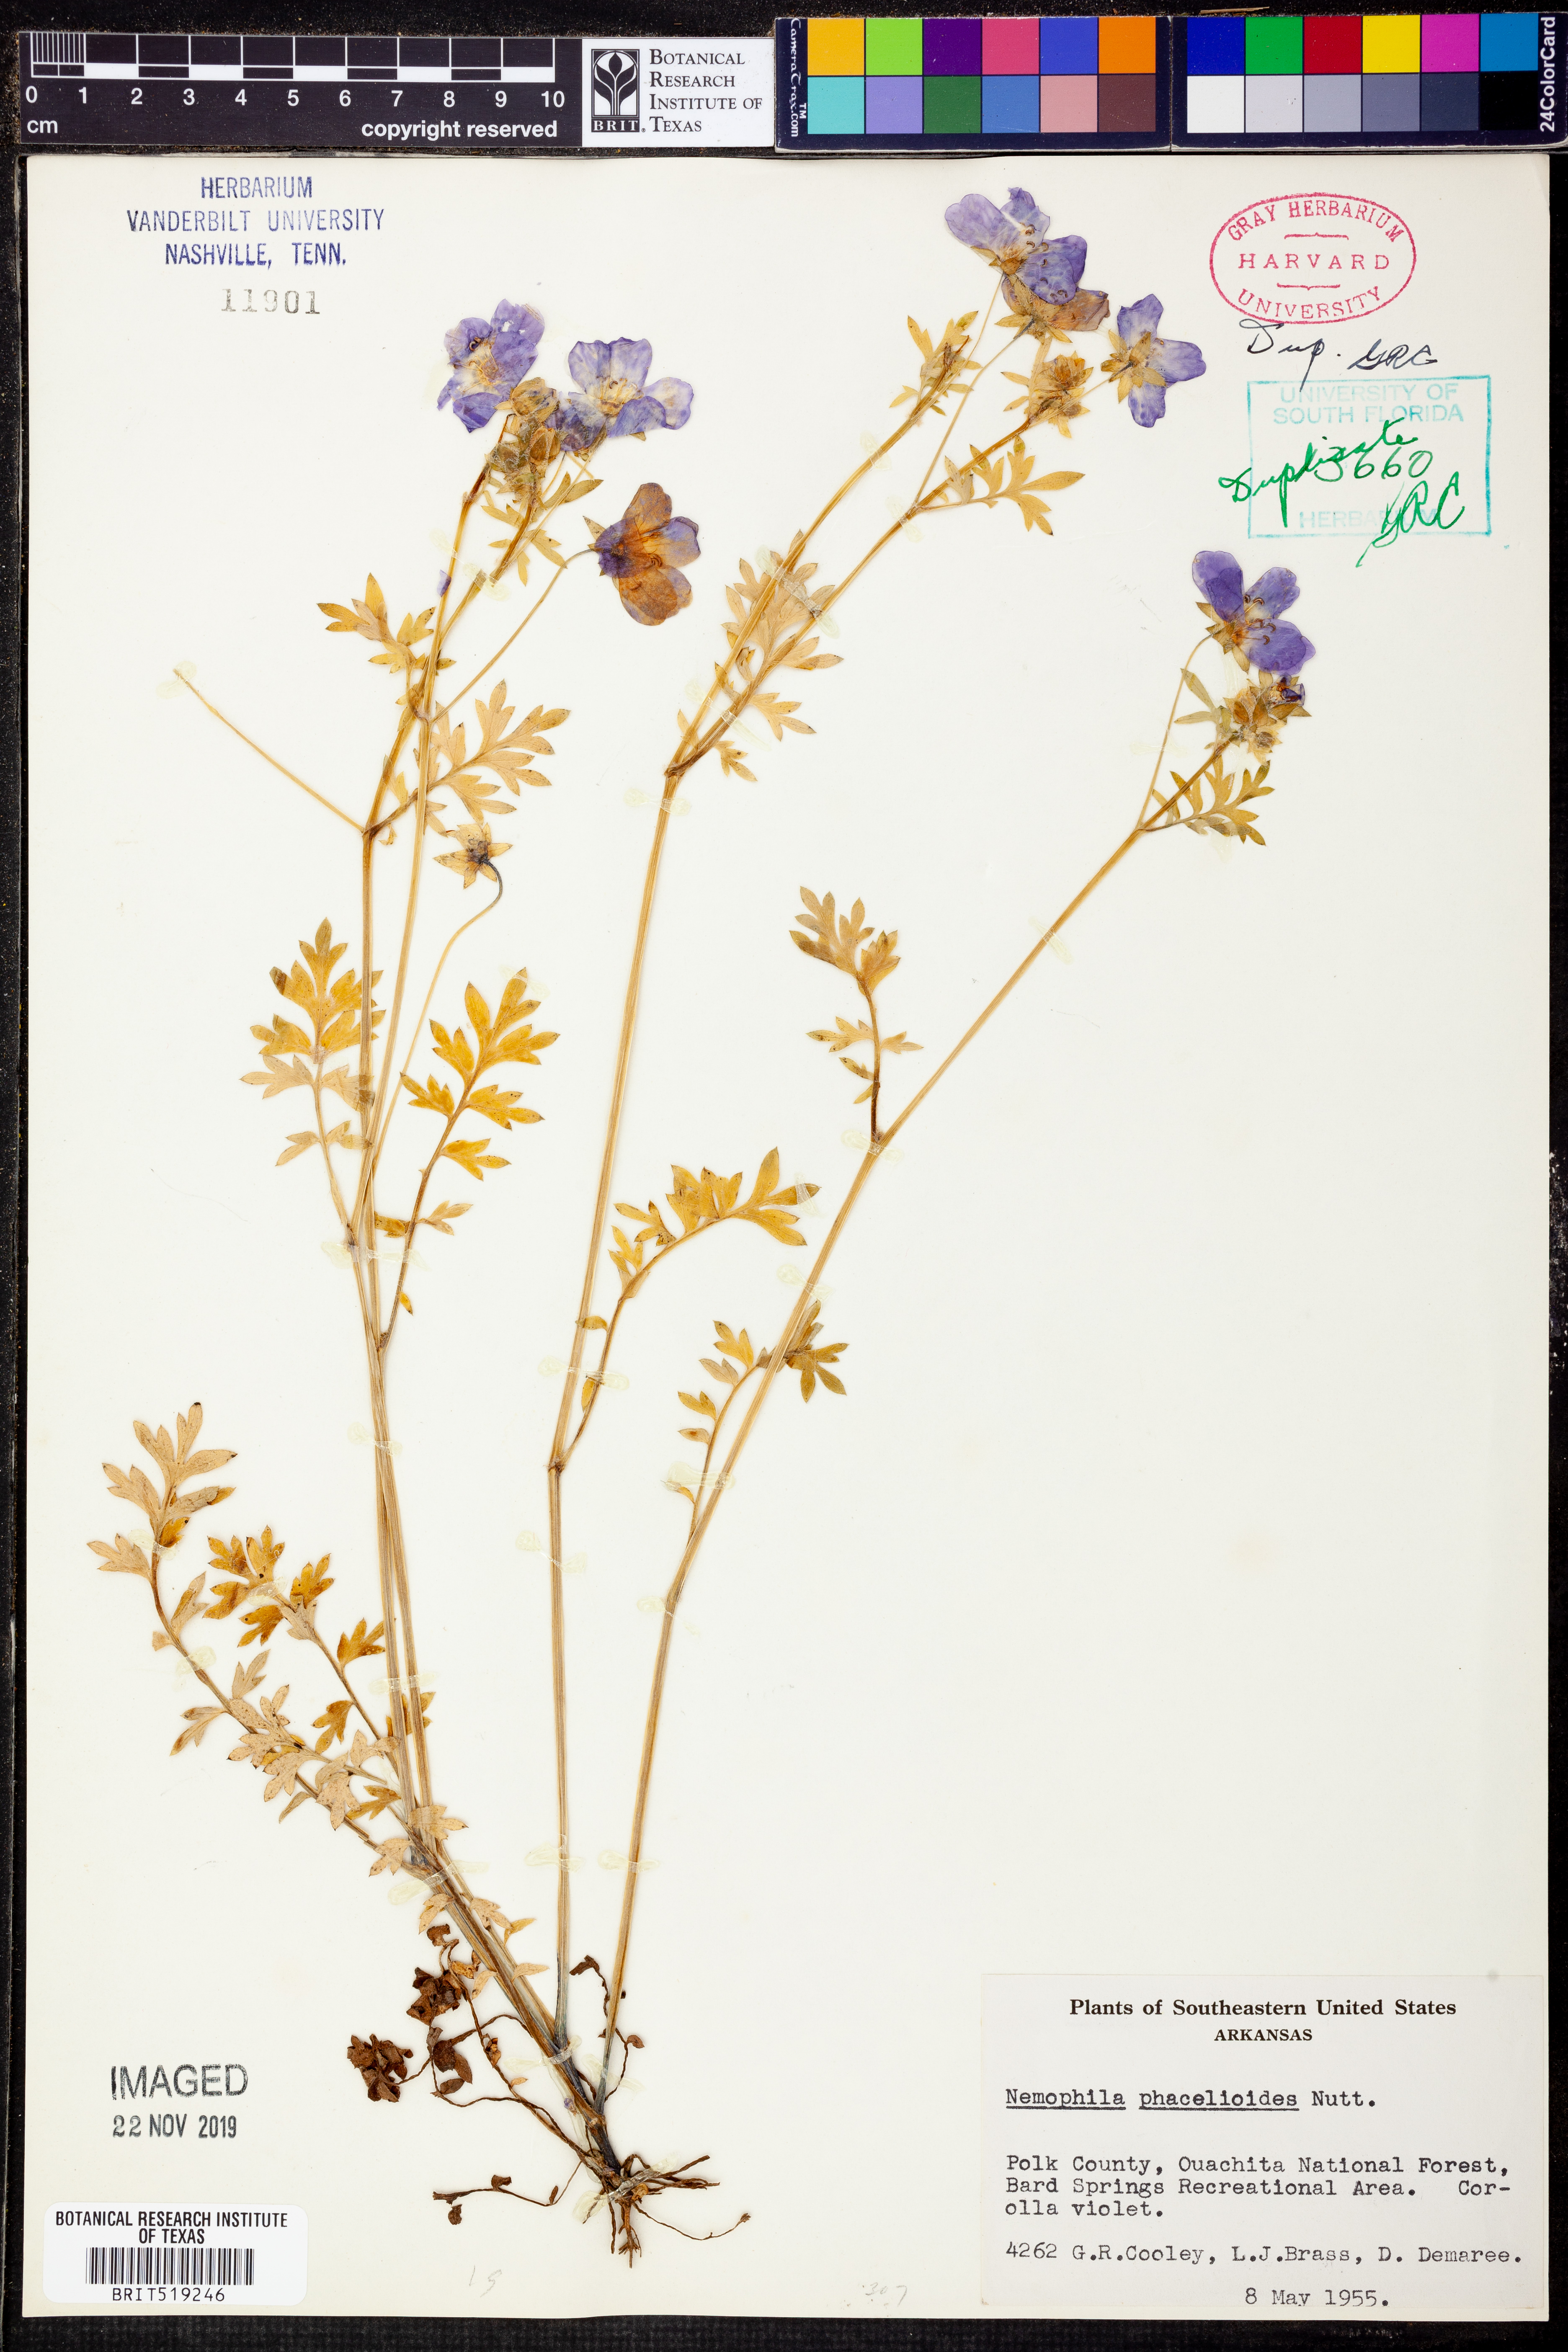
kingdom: Plantae
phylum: Tracheophyta
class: Magnoliopsida
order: Boraginales
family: Hydrophyllaceae
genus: Nemophila
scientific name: Nemophila phacelioides
